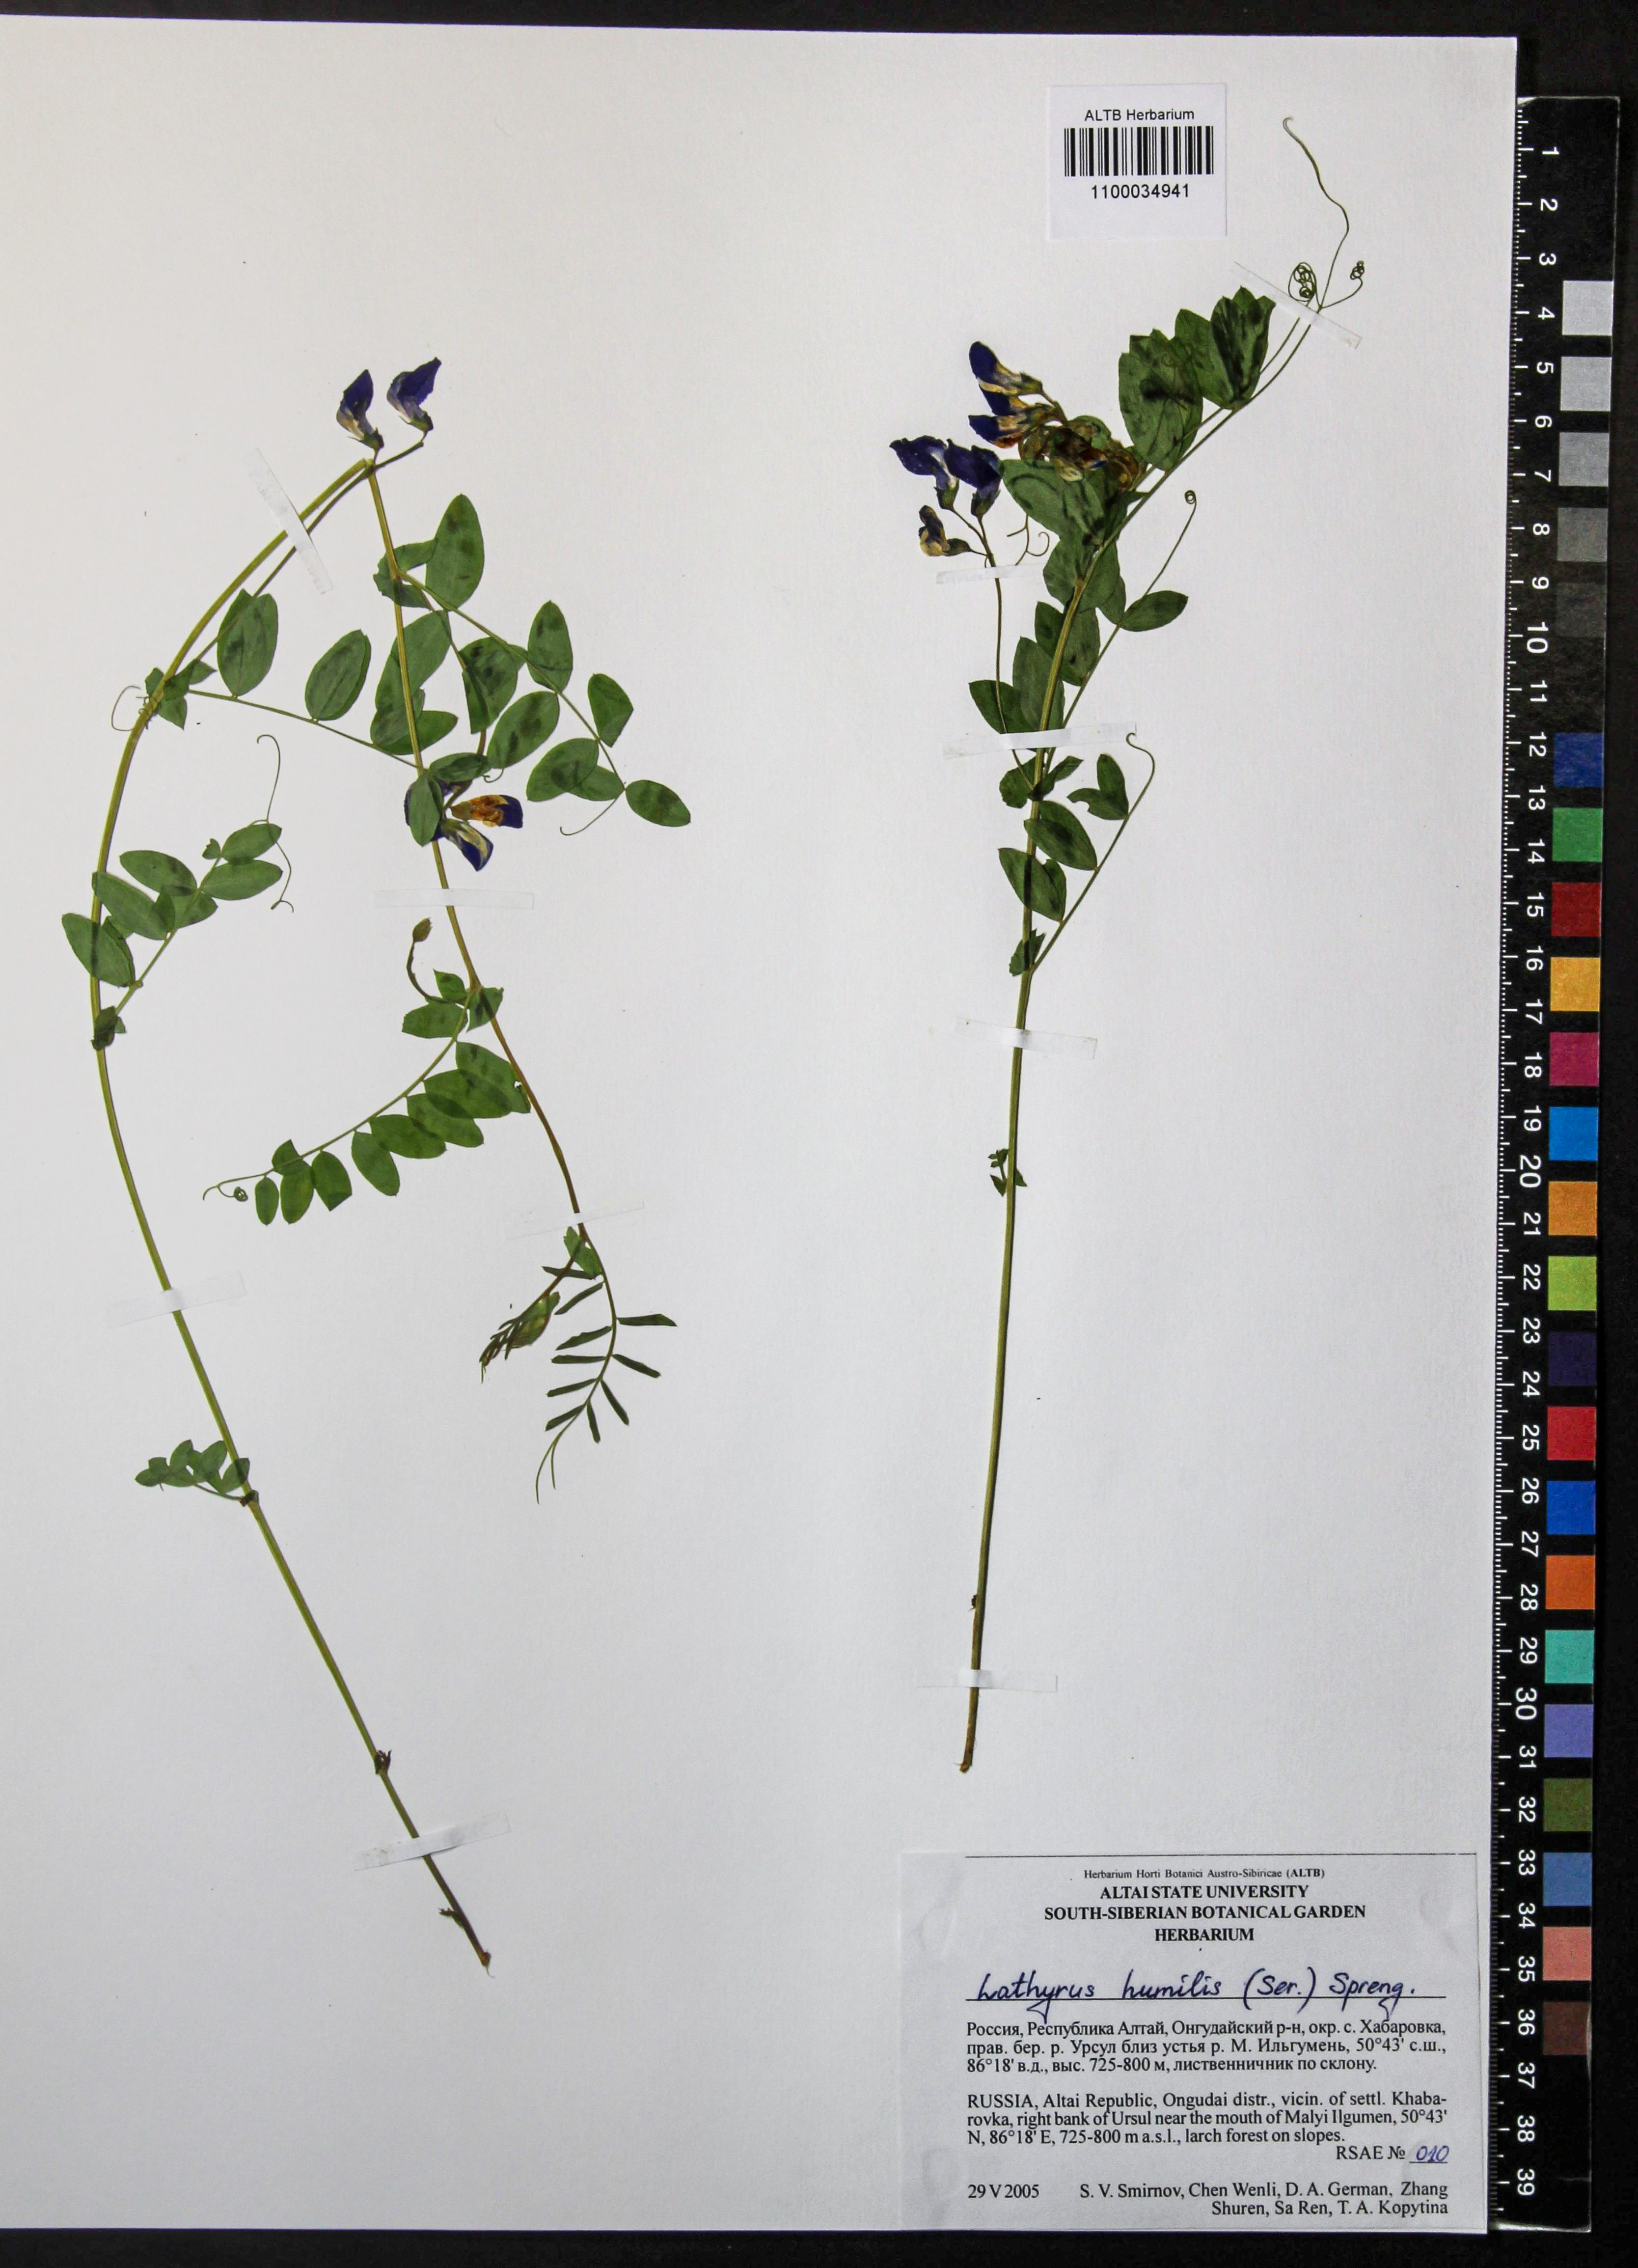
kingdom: Plantae
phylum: Tracheophyta
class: Magnoliopsida
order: Fabales
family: Fabaceae
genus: Lathyrus
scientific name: Lathyrus humilis
